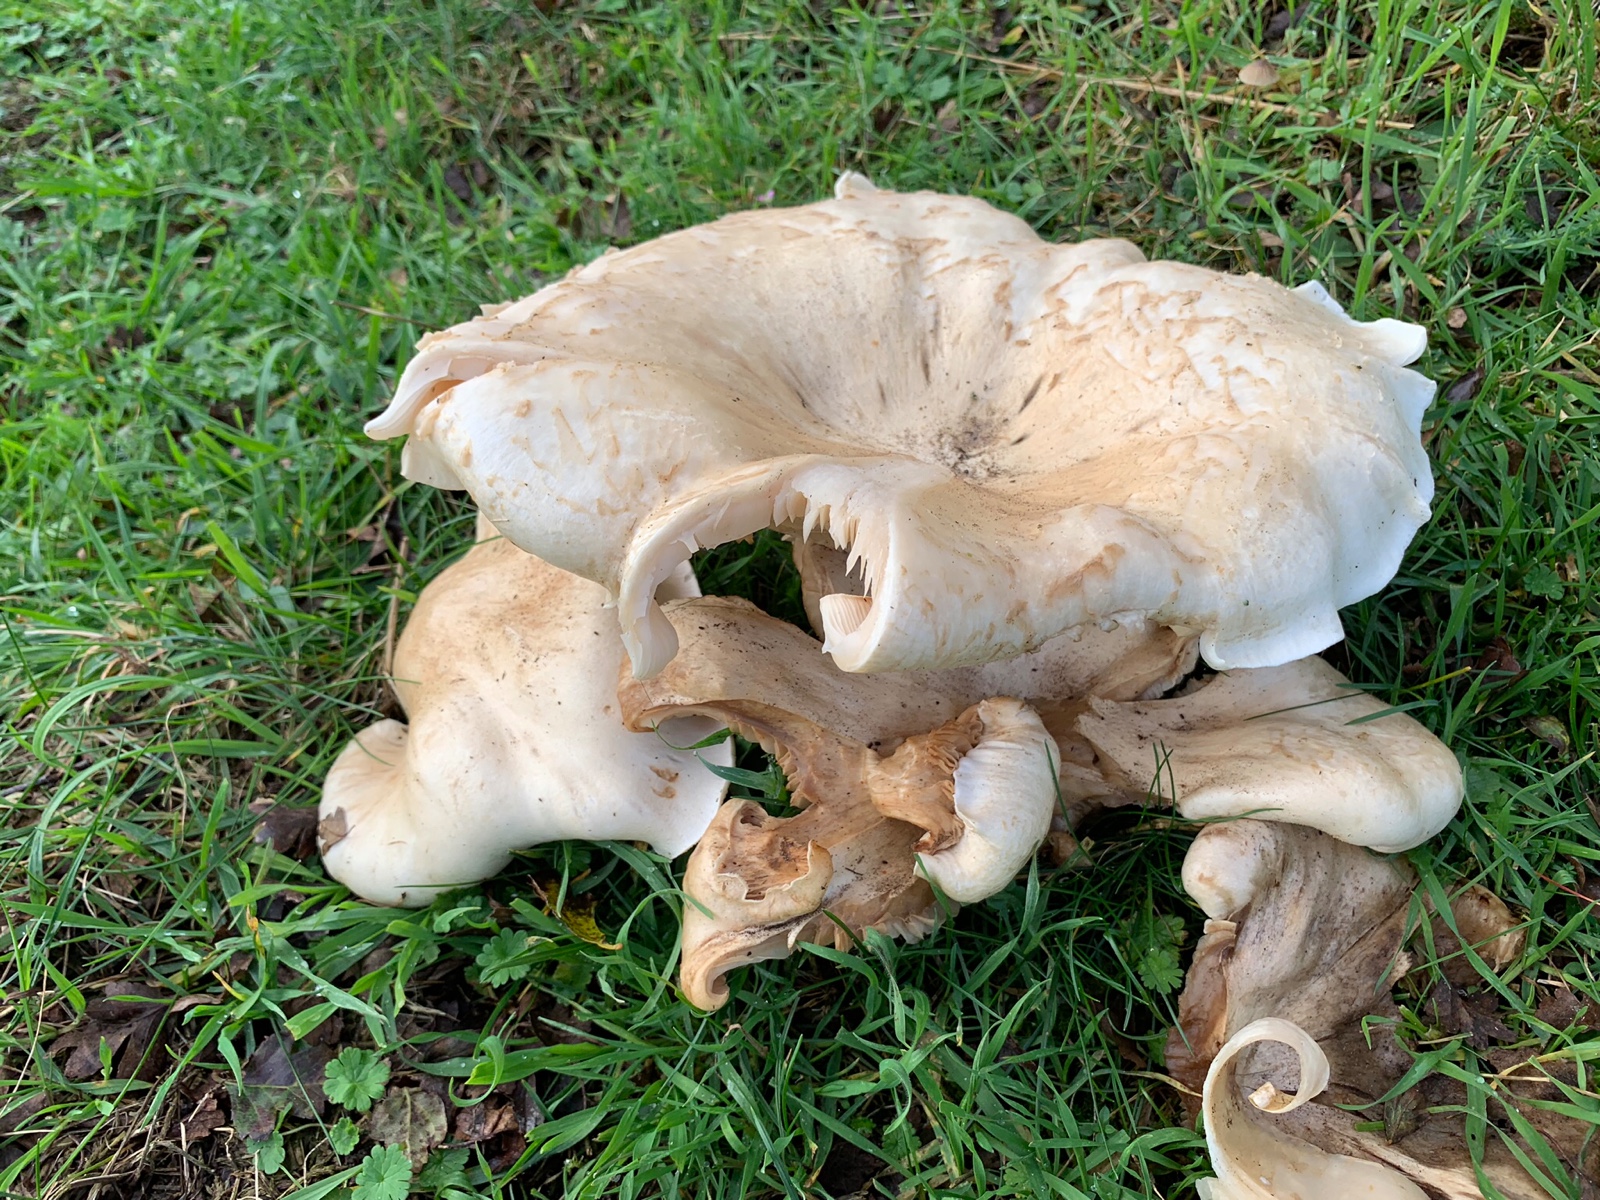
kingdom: Fungi
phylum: Basidiomycota
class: Agaricomycetes
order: Agaricales
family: Tricholomataceae
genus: Aspropaxillus
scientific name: Aspropaxillus giganteus
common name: kæmpe-tragtridderhat
